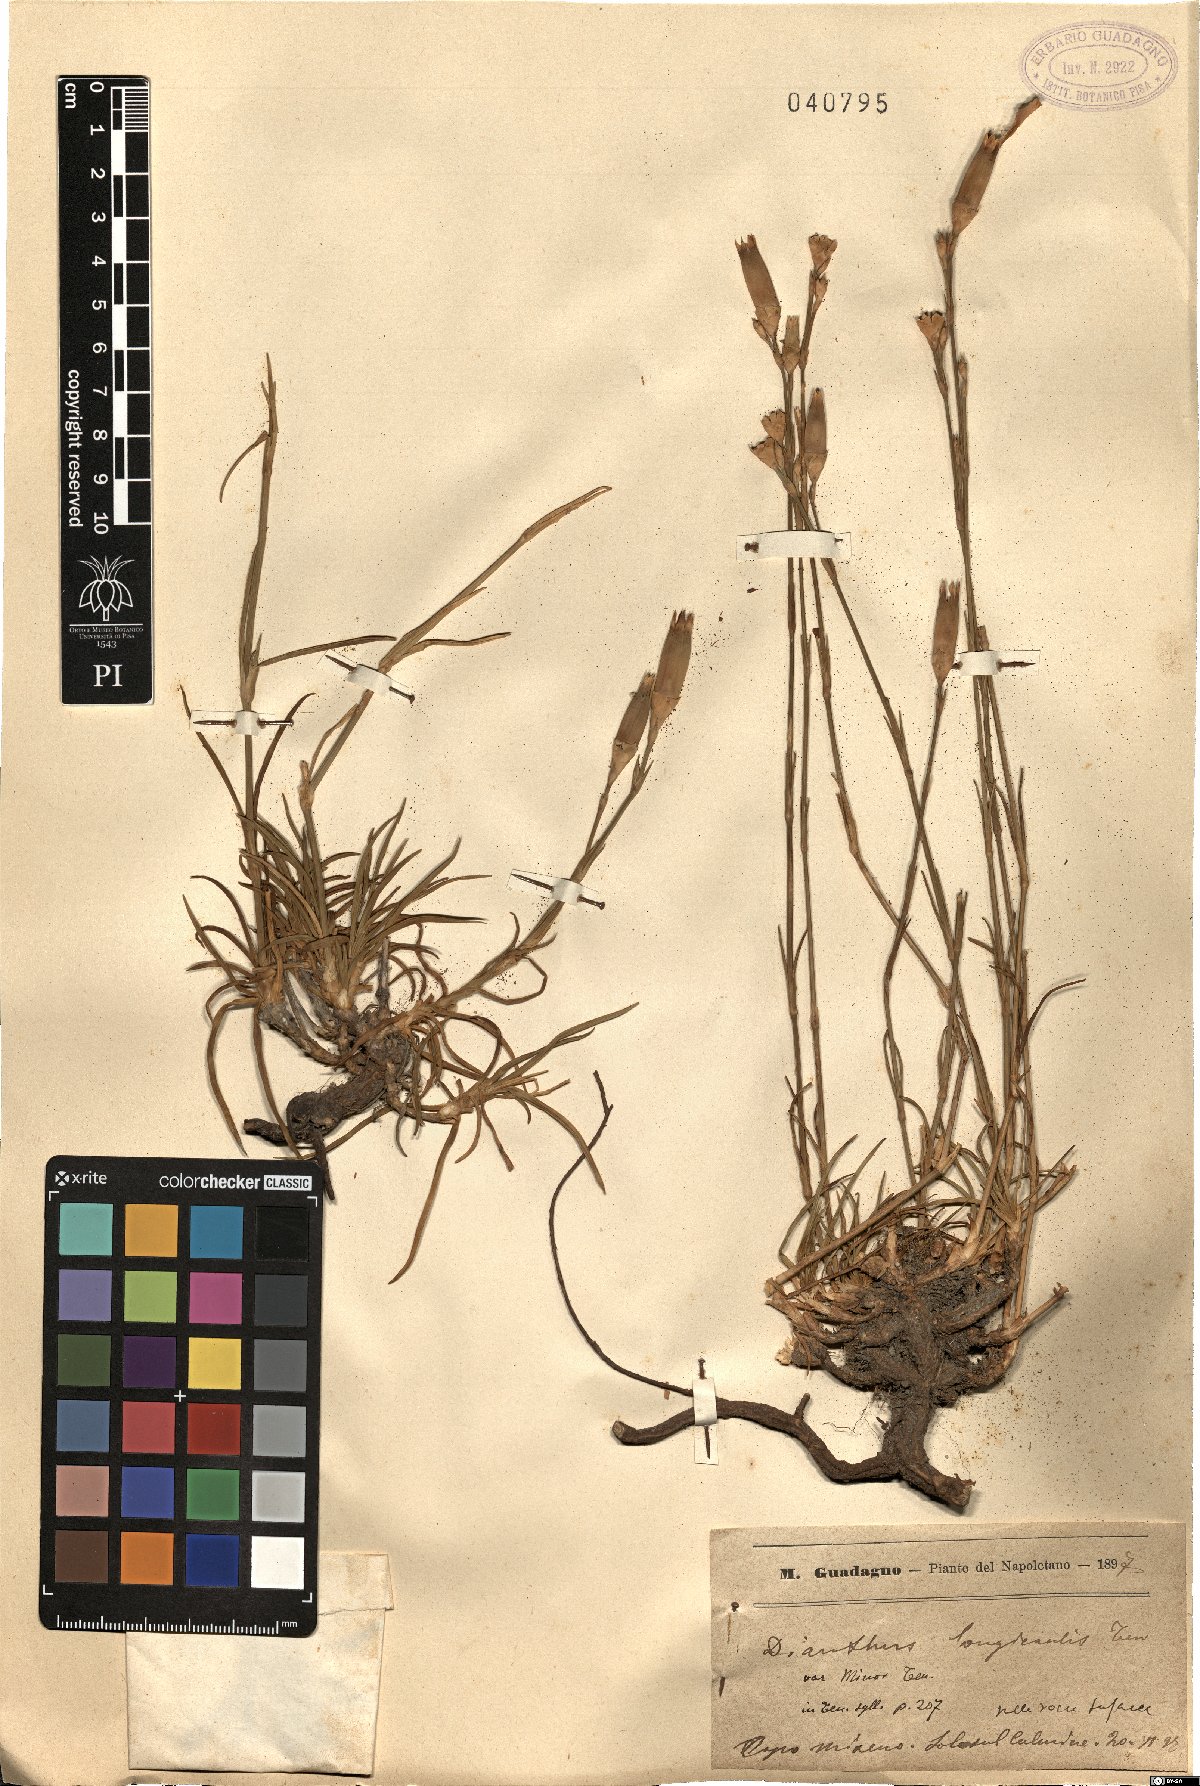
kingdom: Plantae
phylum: Tracheophyta
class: Magnoliopsida
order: Caryophyllales
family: Caryophyllaceae
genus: Dianthus
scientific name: Dianthus
